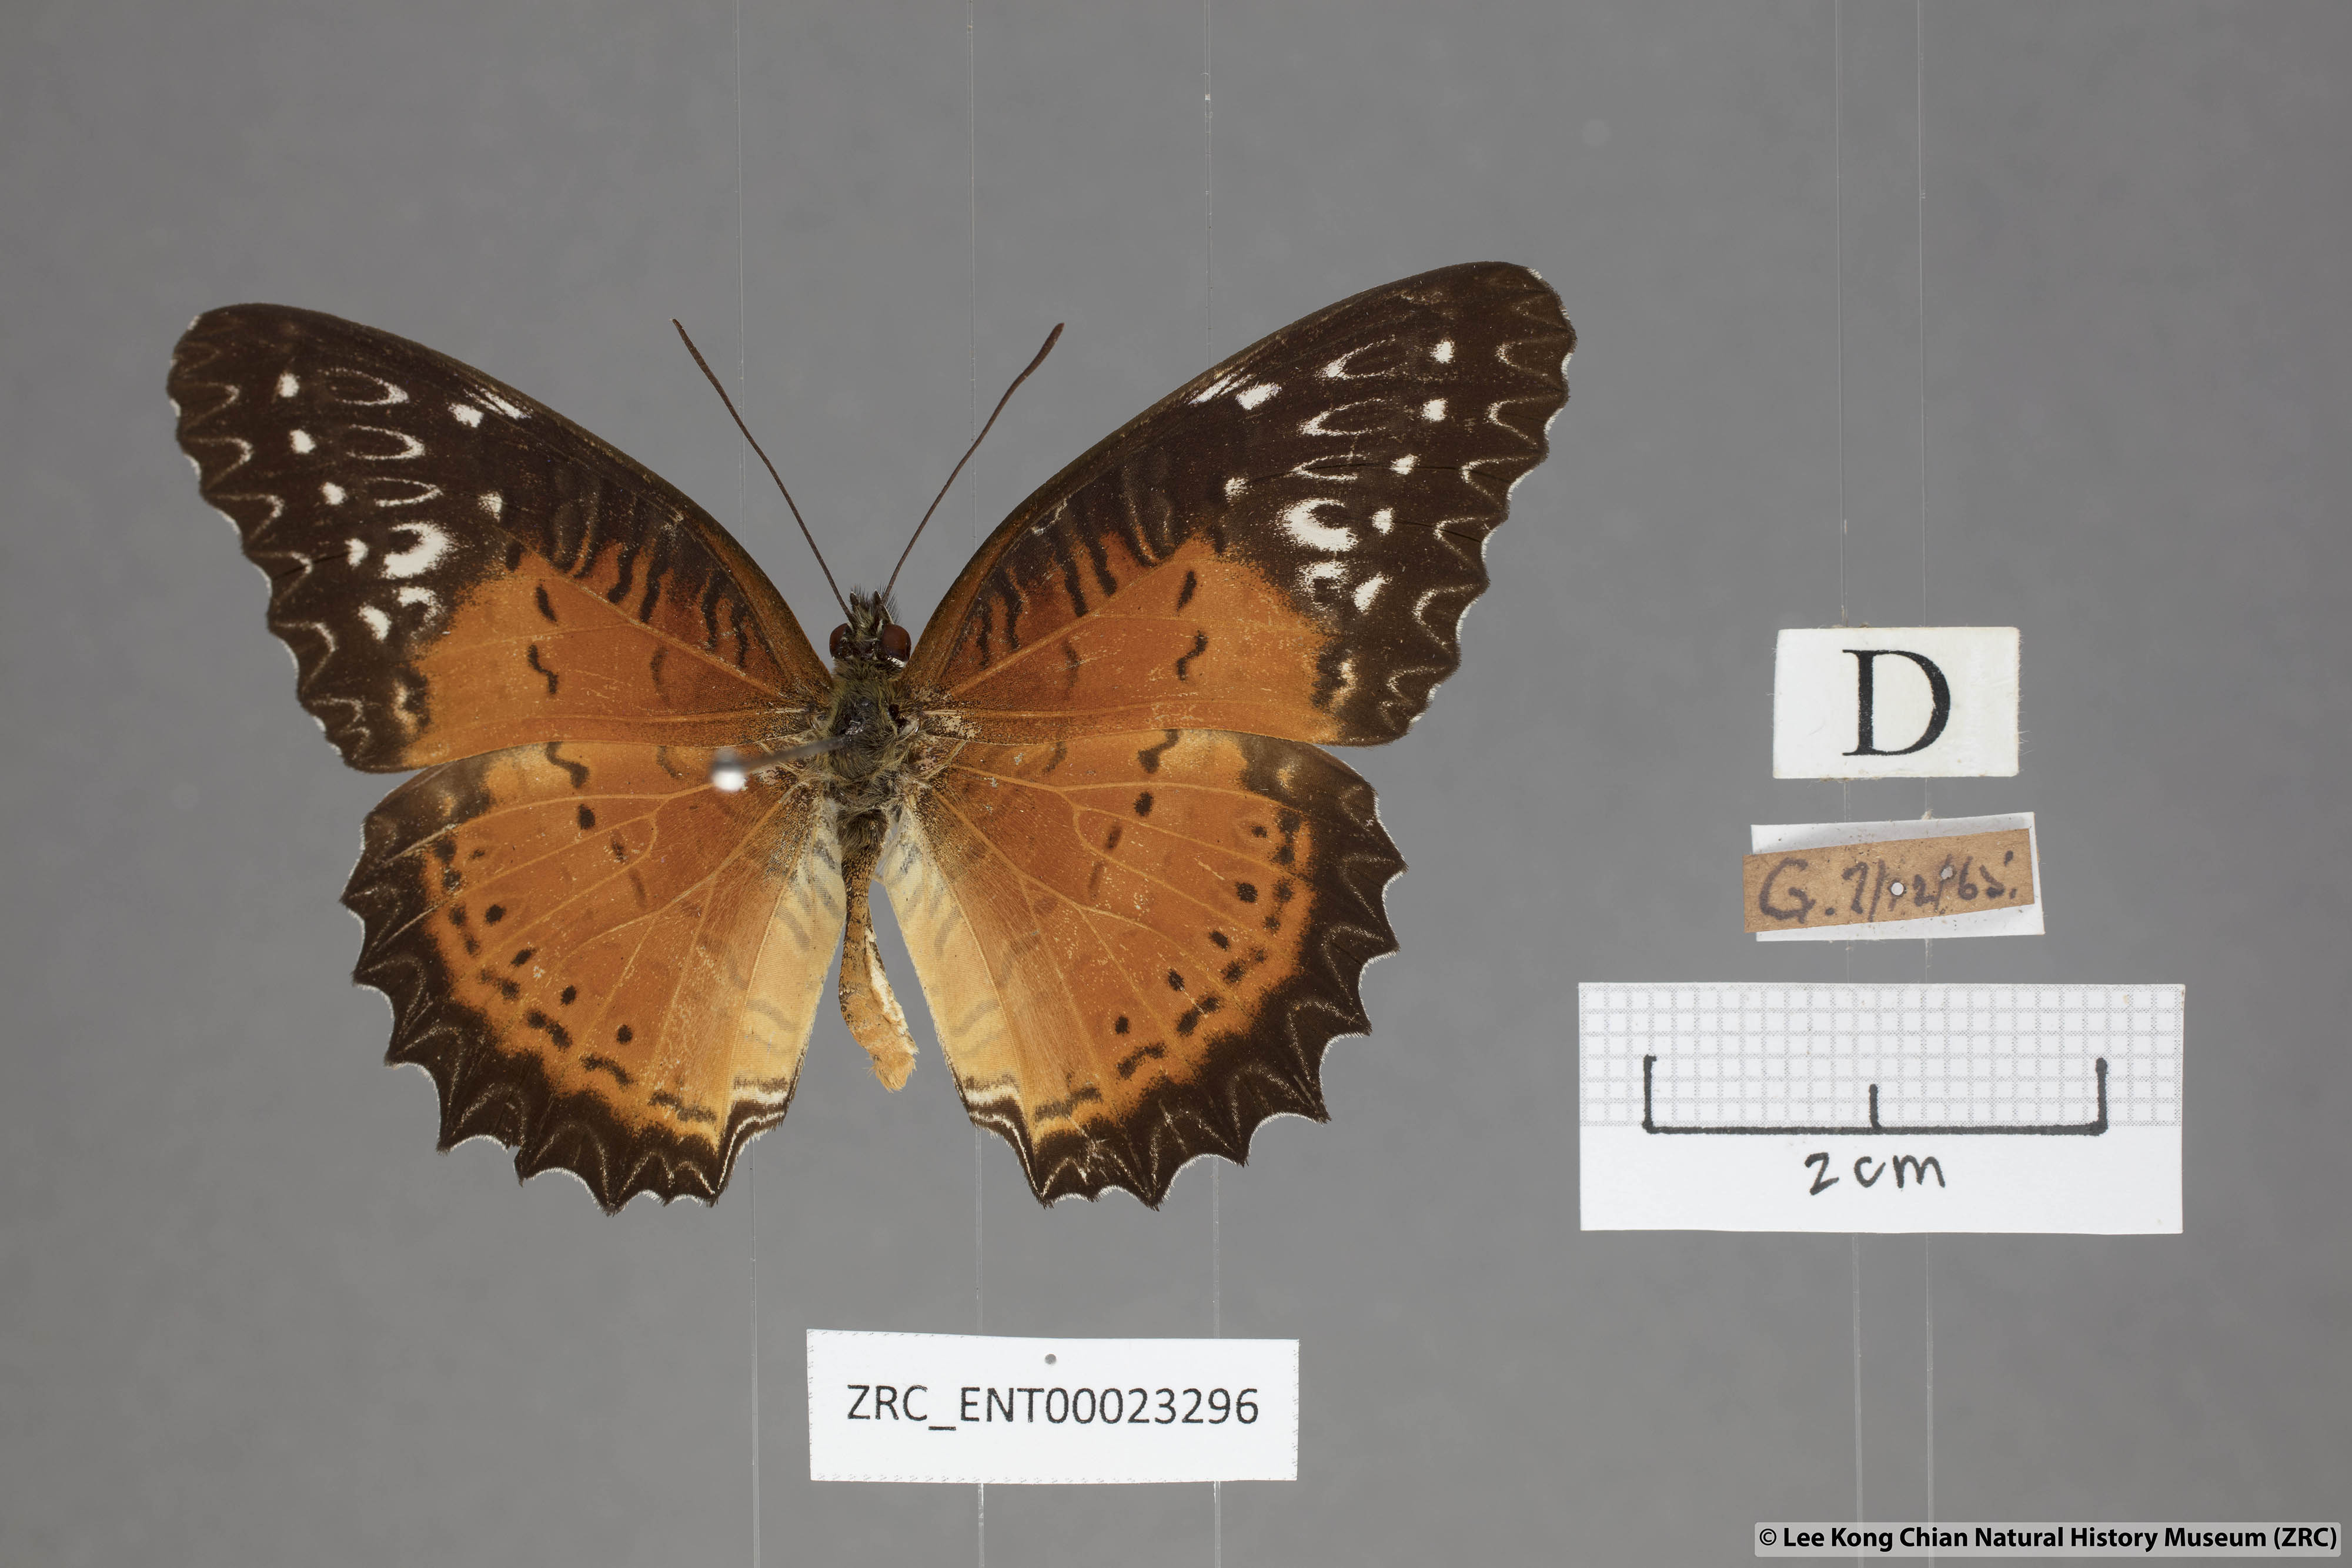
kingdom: Animalia
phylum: Arthropoda
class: Insecta
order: Lepidoptera
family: Nymphalidae
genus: Cethosia
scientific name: Cethosia biblis
